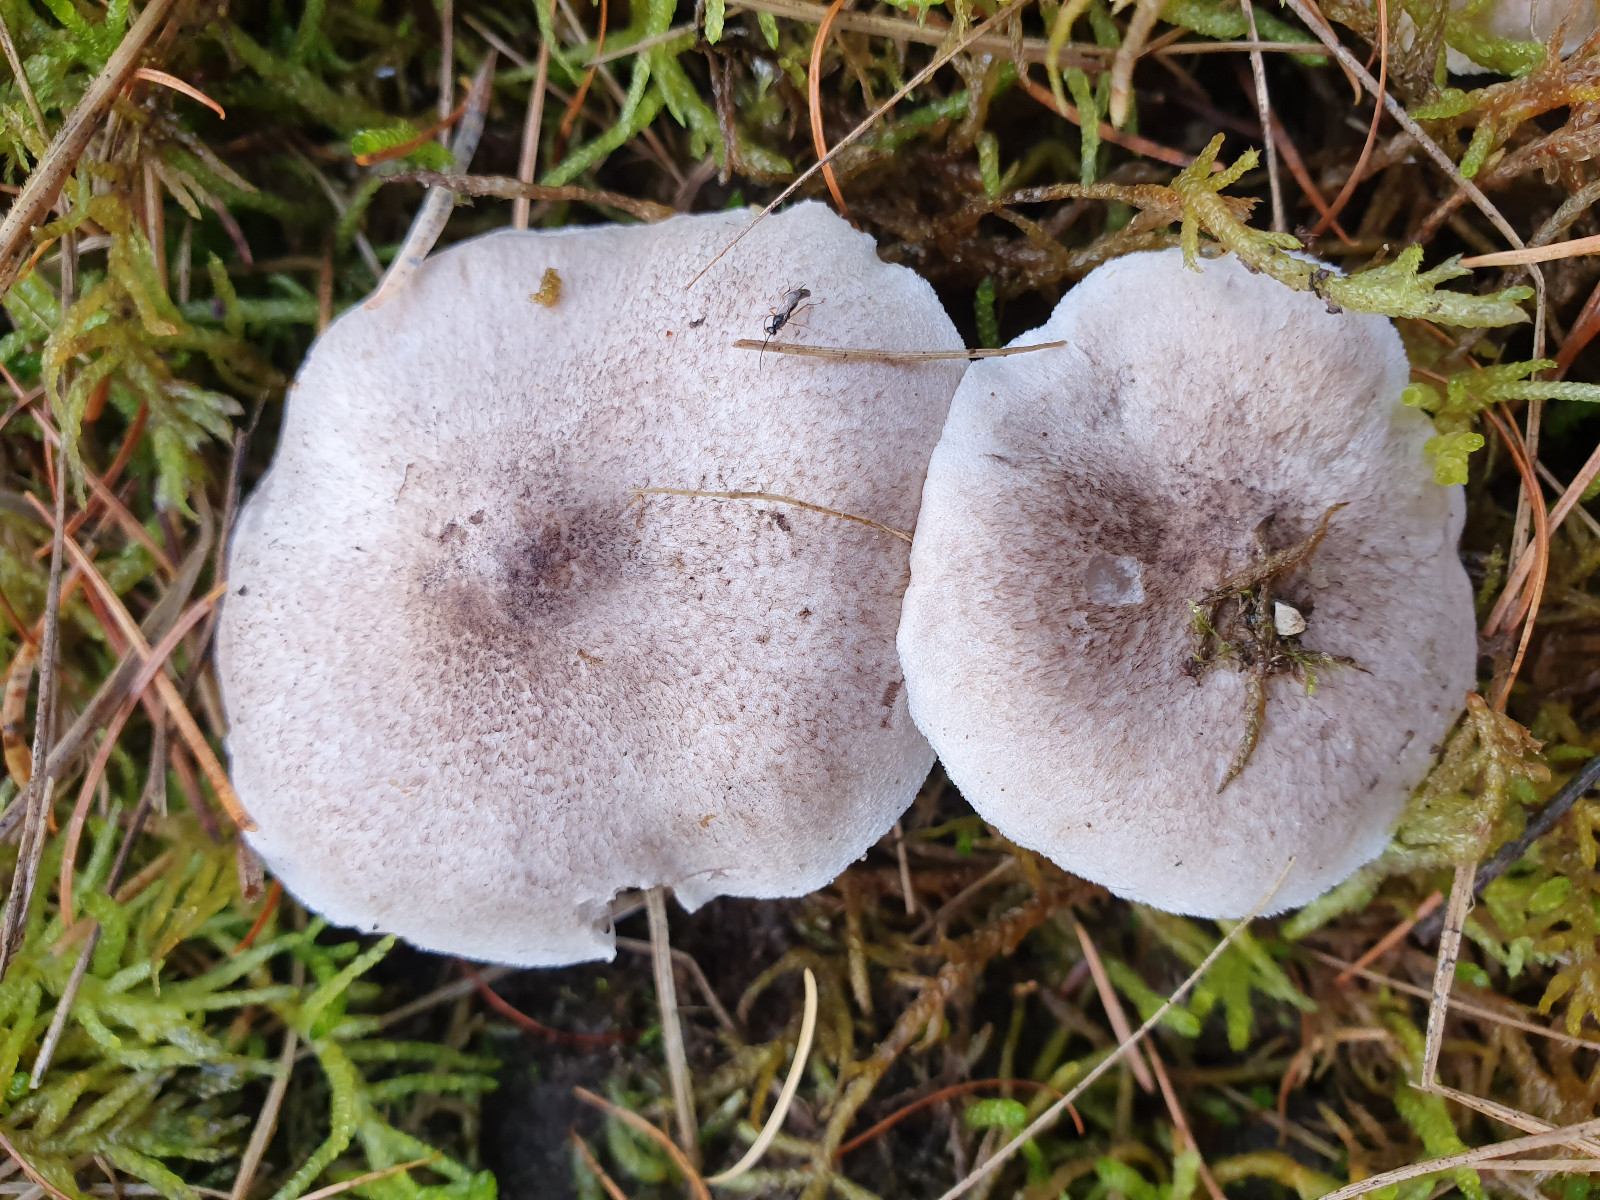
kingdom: Fungi
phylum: Basidiomycota
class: Agaricomycetes
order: Agaricales
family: Tricholomataceae
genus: Tricholoma
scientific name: Tricholoma
